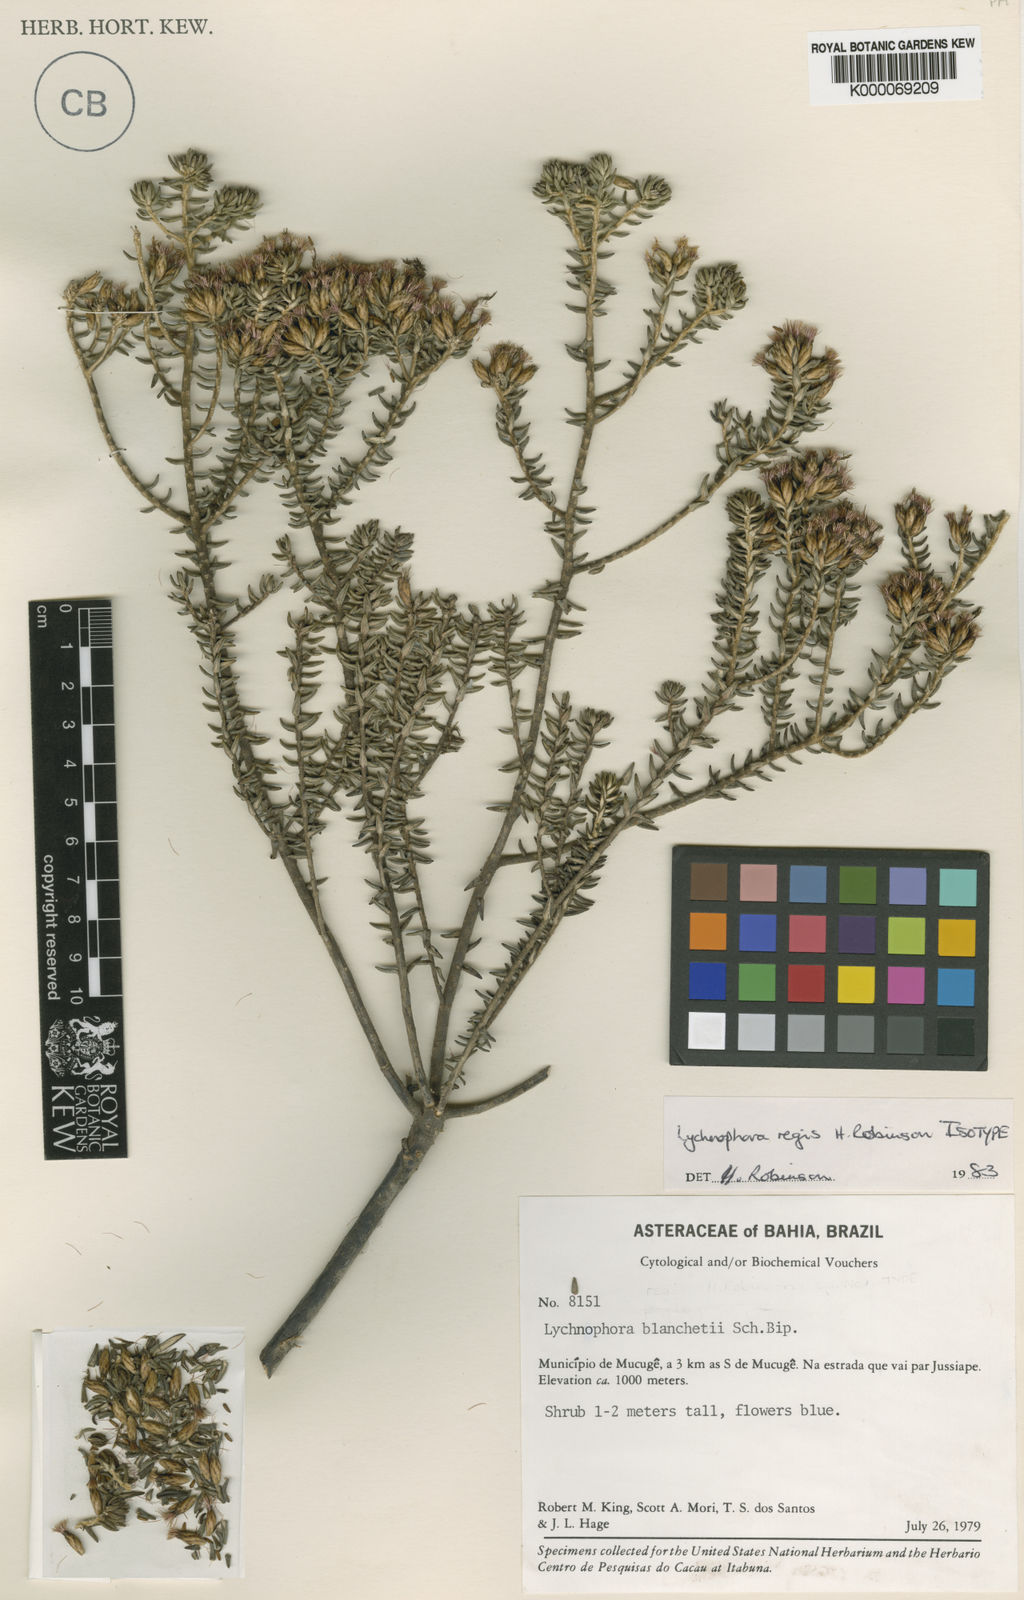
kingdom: Plantae
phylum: Tracheophyta
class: Magnoliopsida
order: Asterales
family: Asteraceae
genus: Lychnophorella
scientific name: Lychnophorella regis
